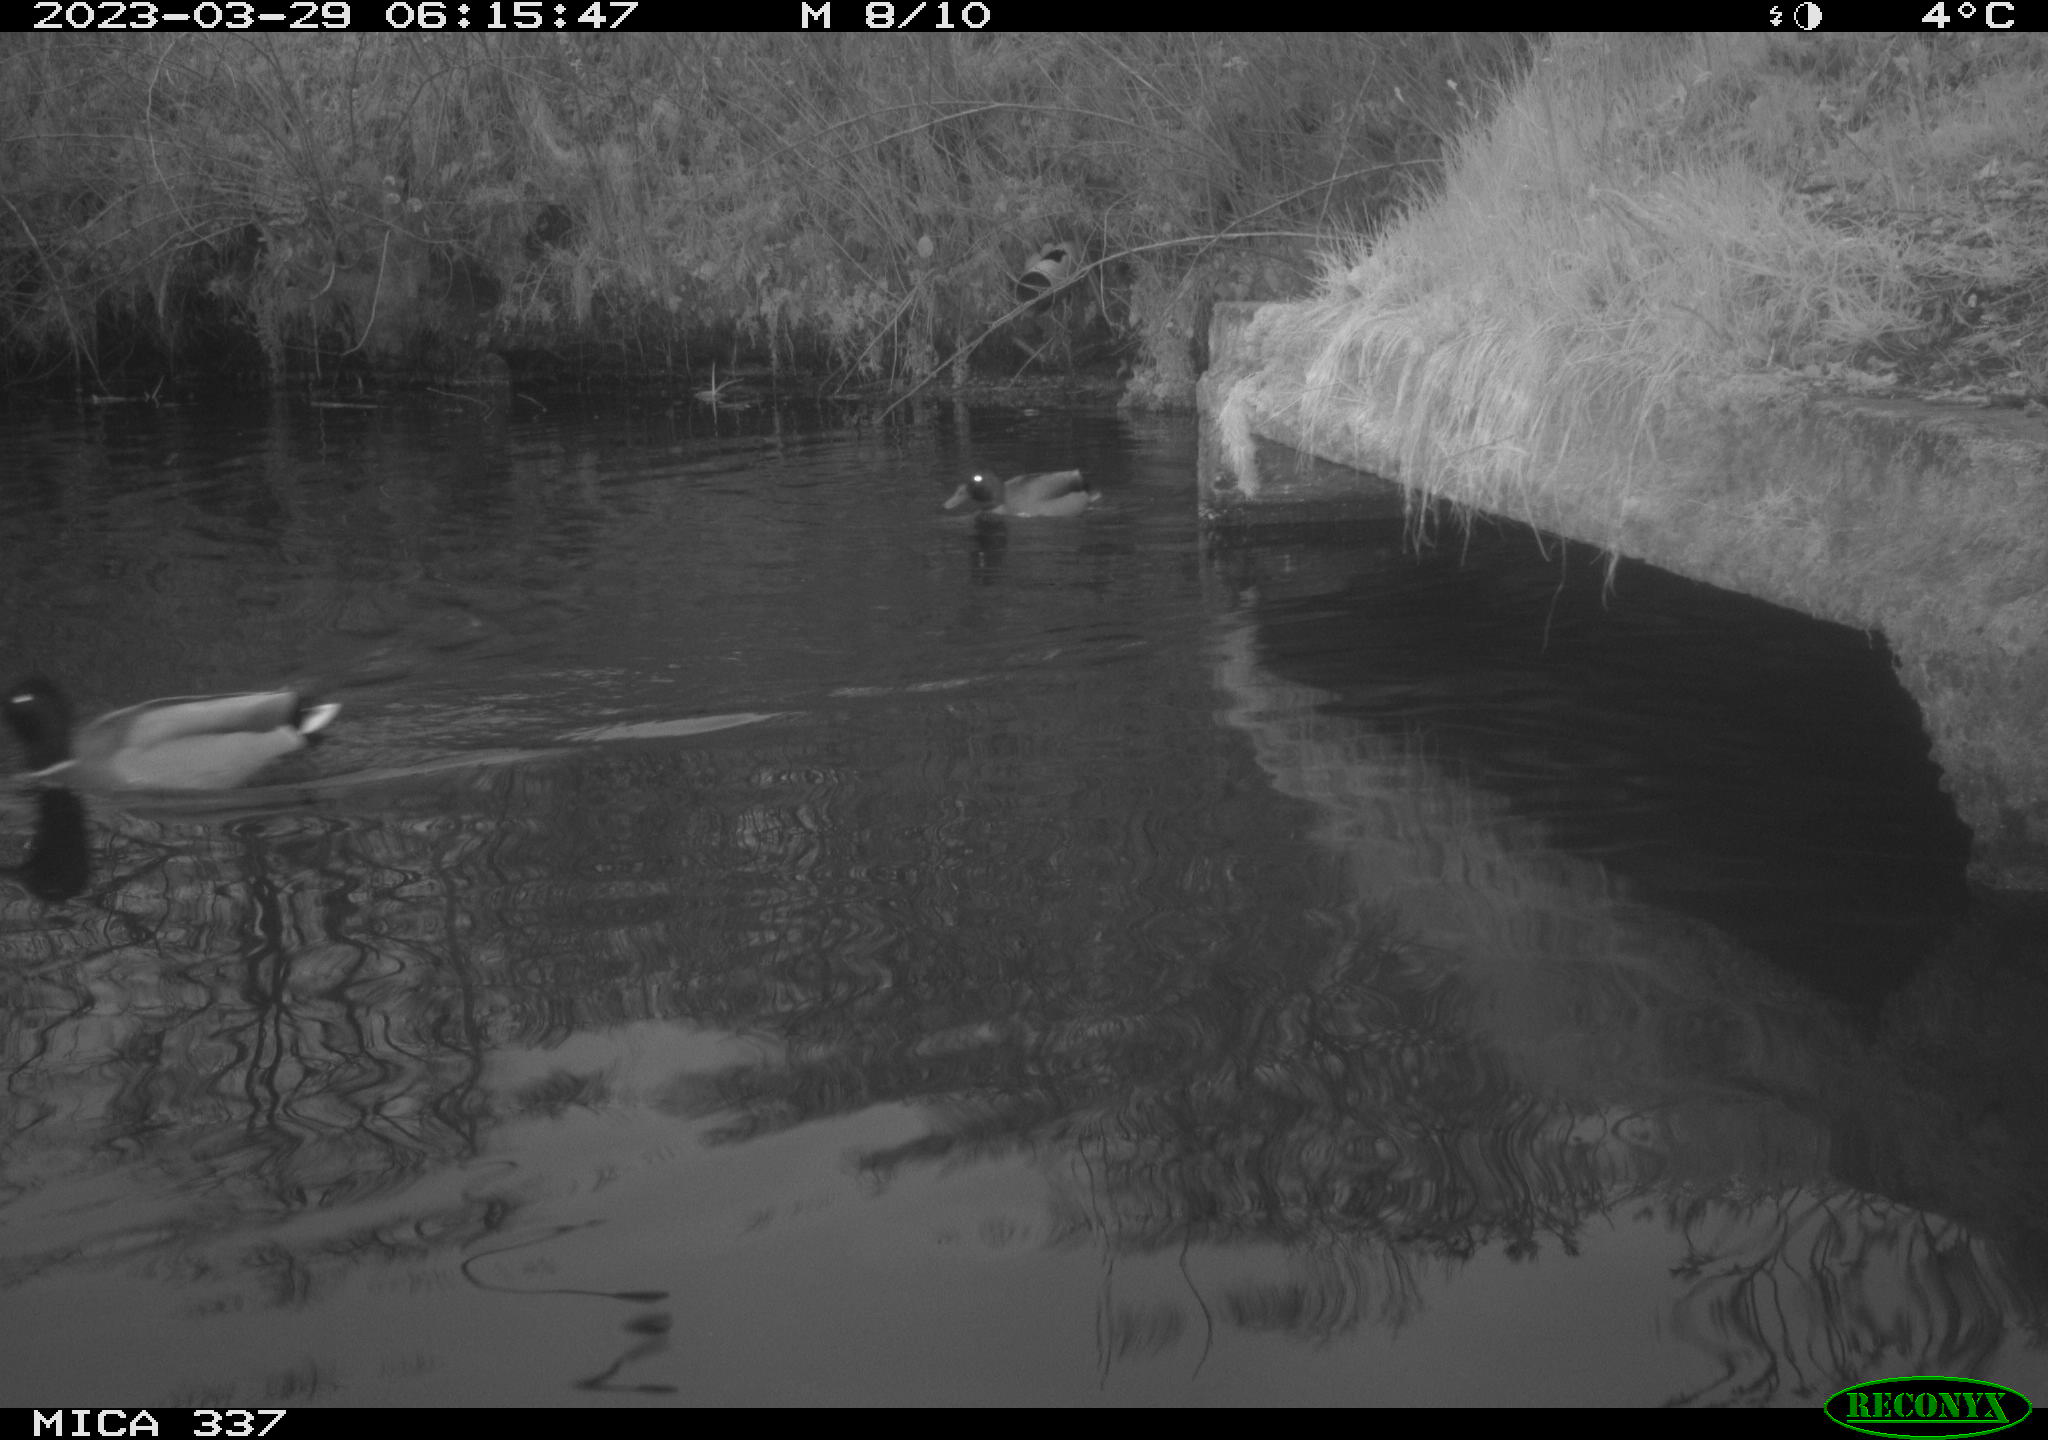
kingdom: Animalia
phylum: Chordata
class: Aves
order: Anseriformes
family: Anatidae
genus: Anas
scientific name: Anas platyrhynchos
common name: Mallard
